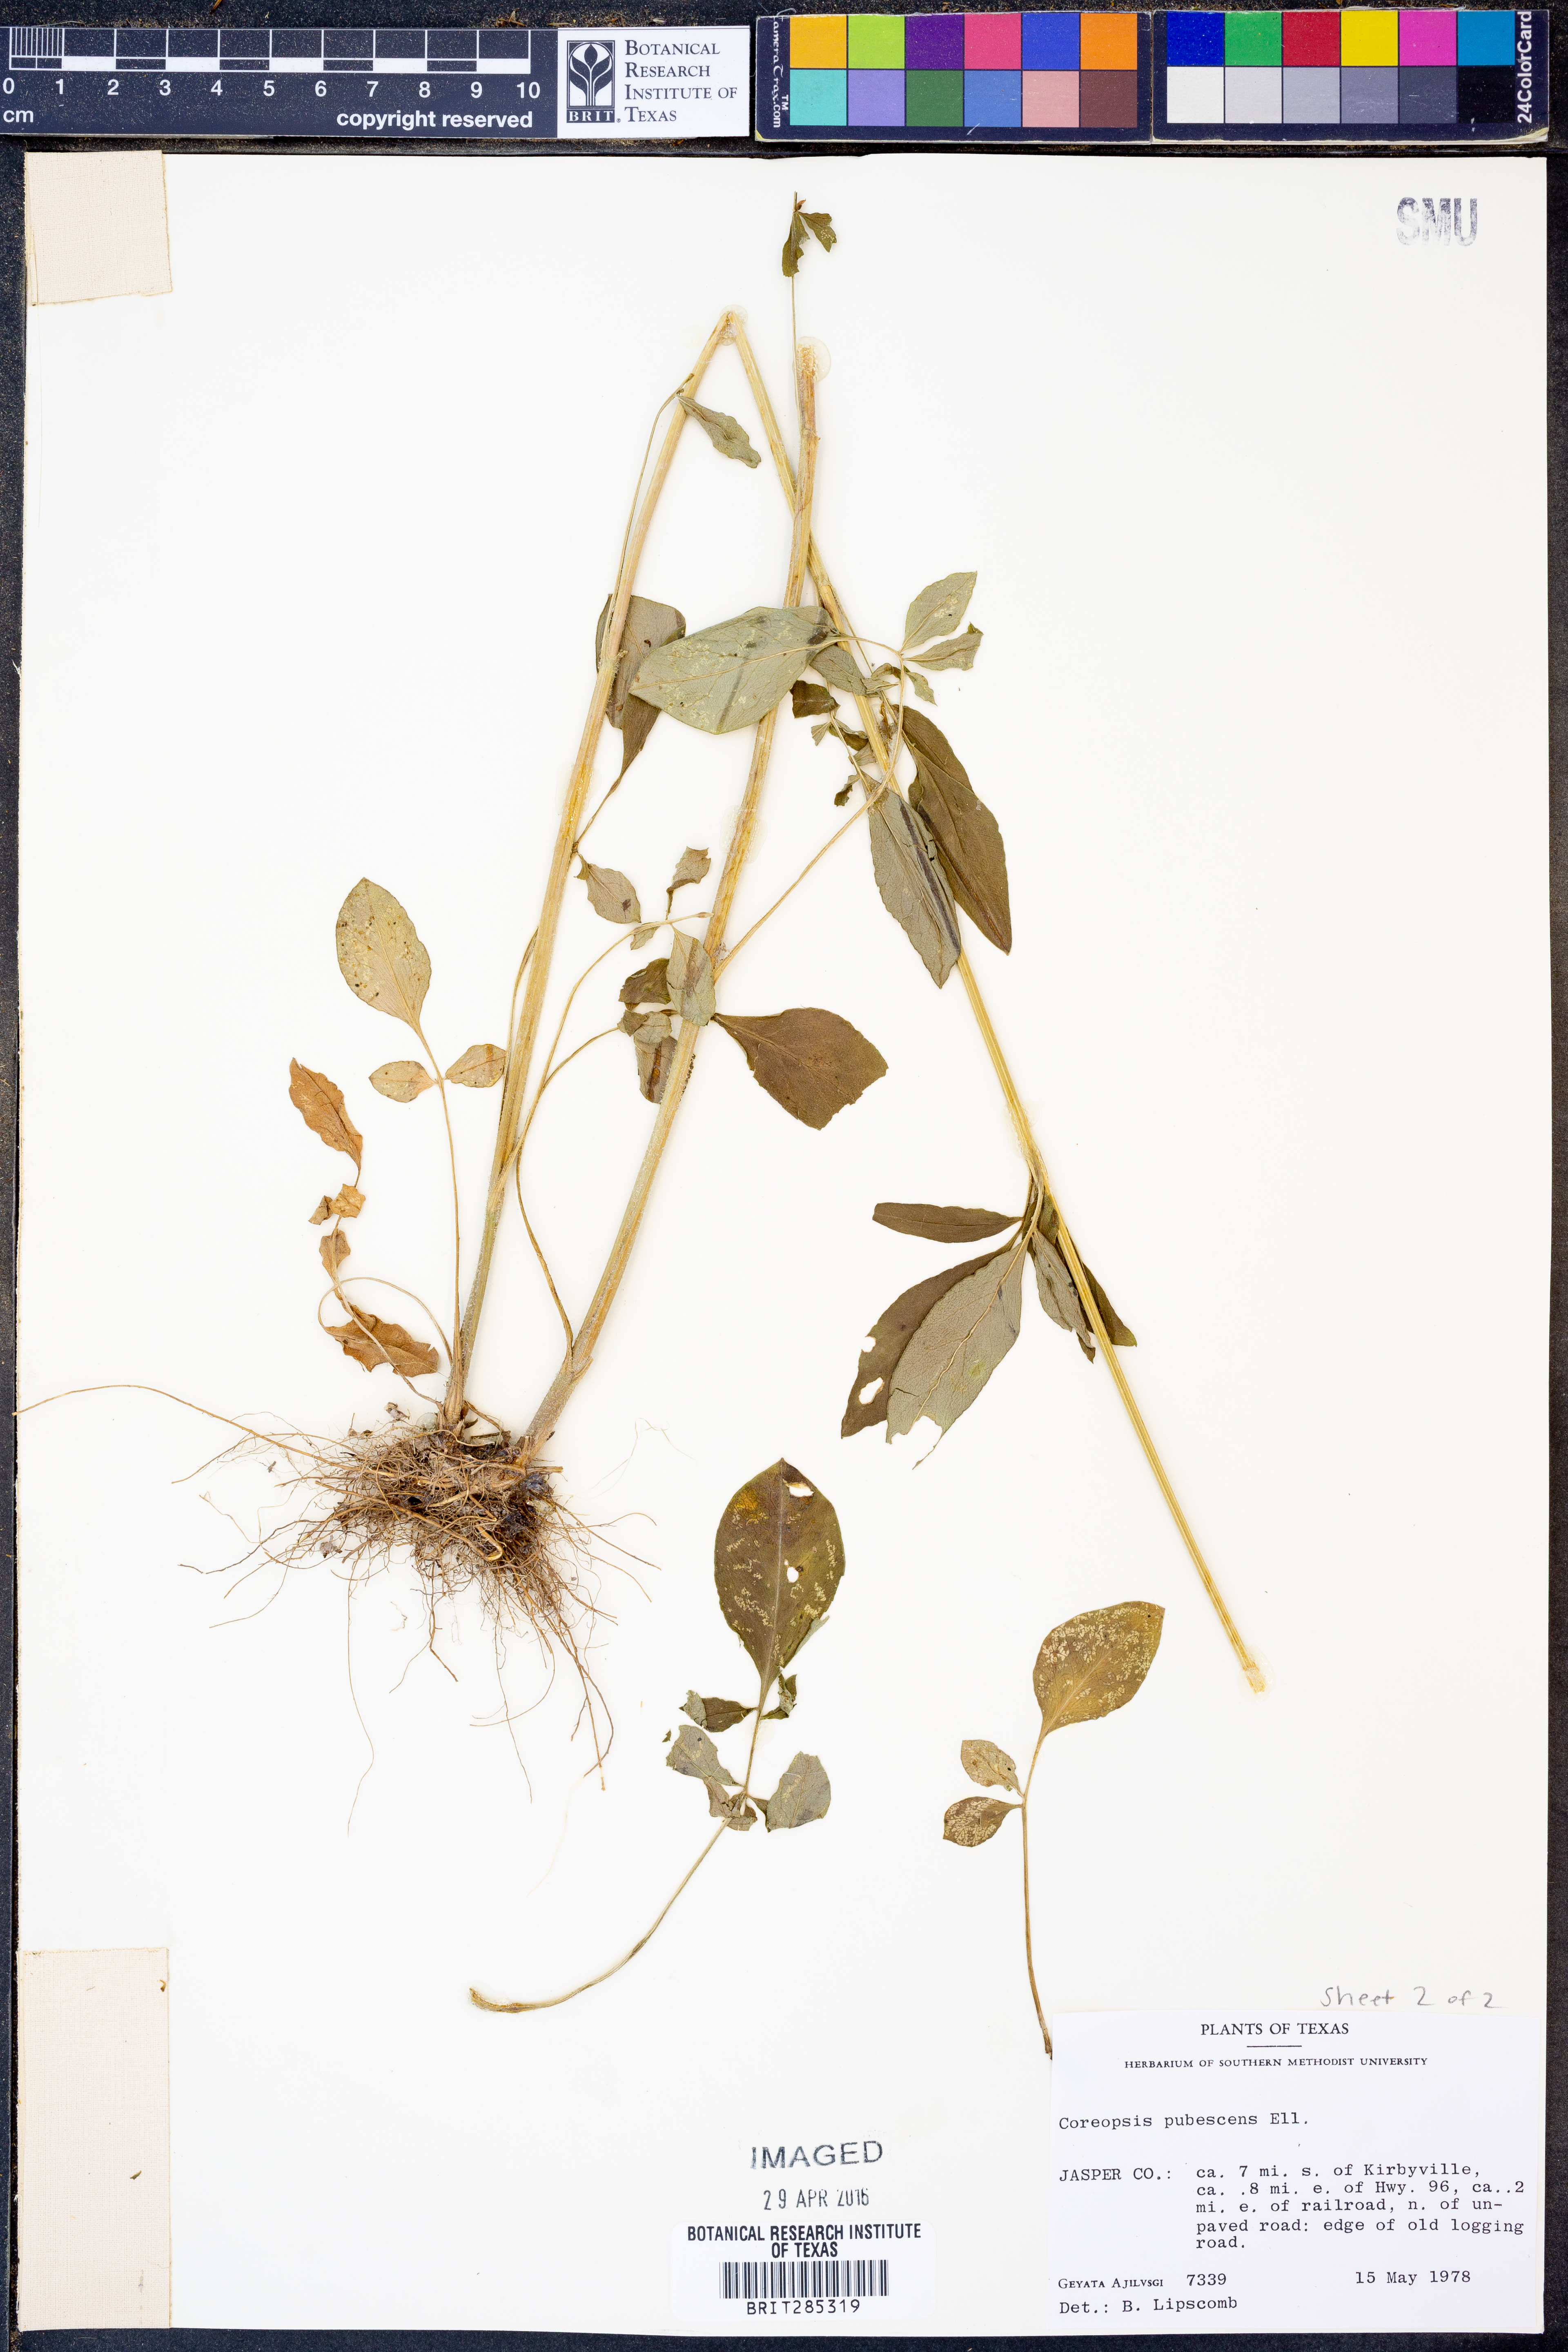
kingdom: Plantae
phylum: Tracheophyta
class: Magnoliopsida
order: Asterales
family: Asteraceae
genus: Coreopsis
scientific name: Coreopsis pubescens
